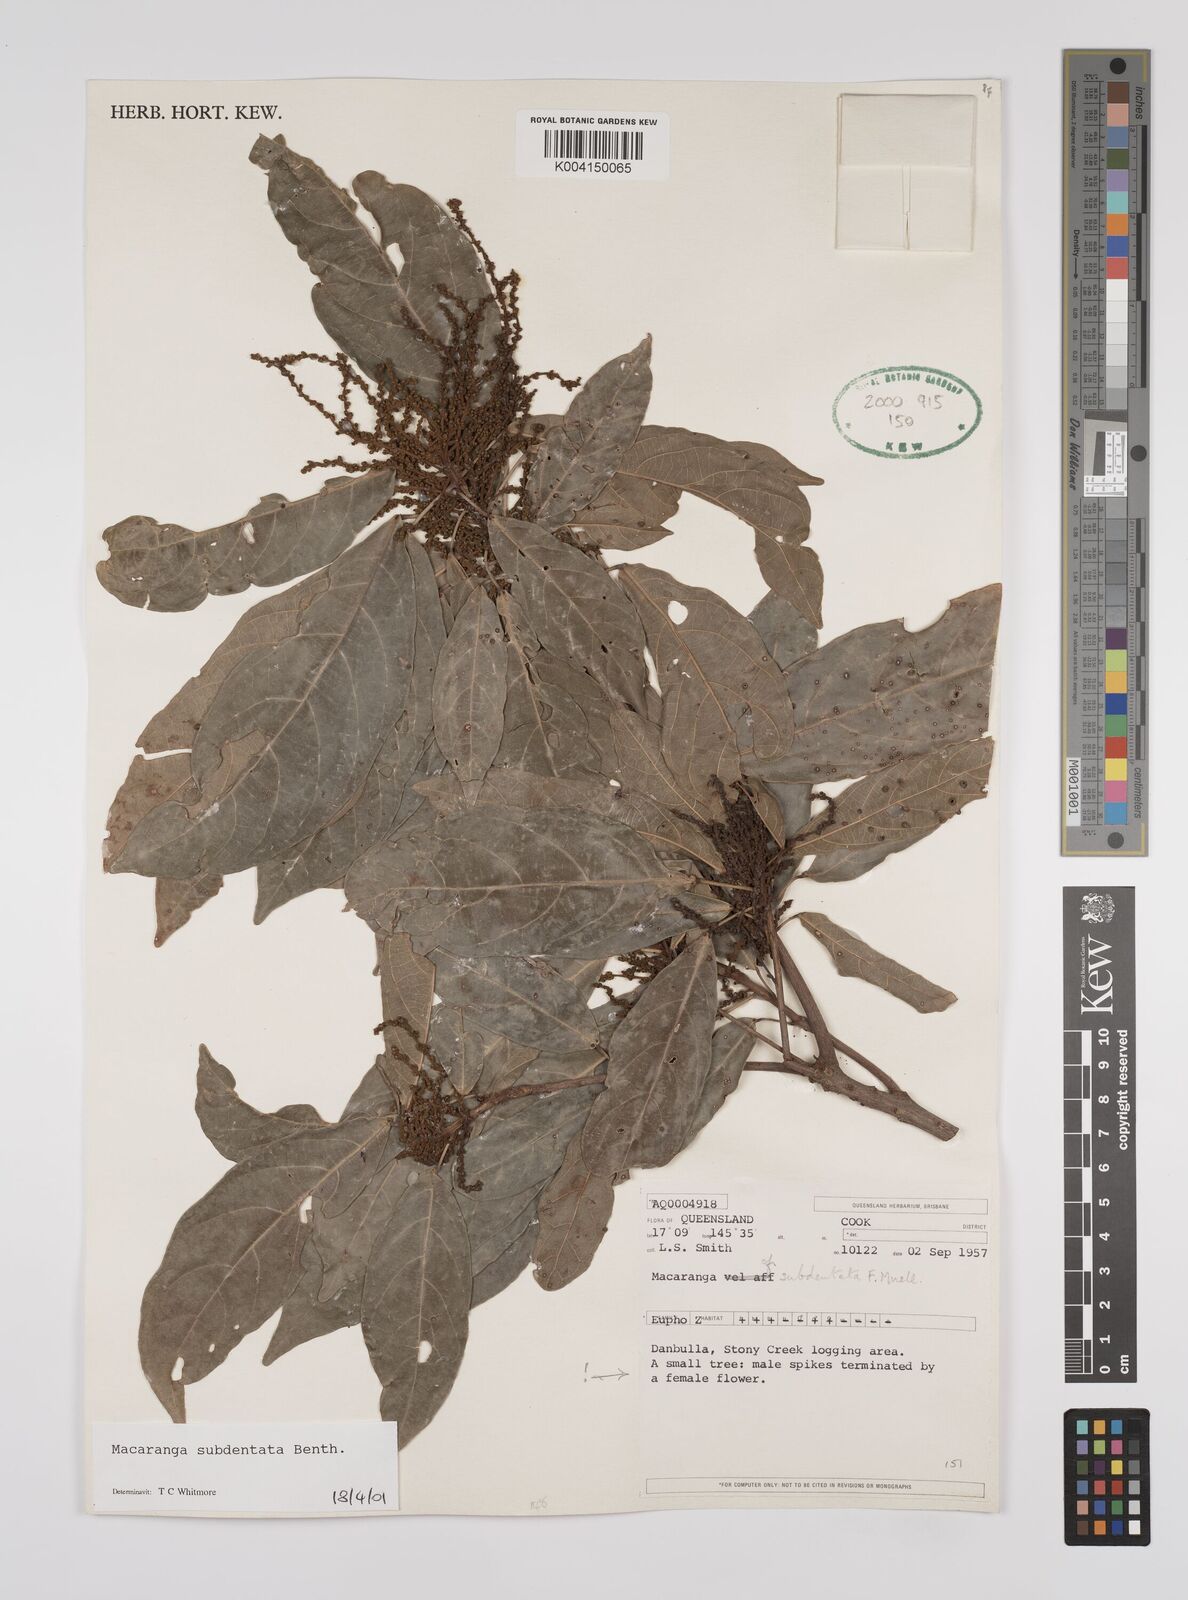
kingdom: Plantae
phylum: Tracheophyta
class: Magnoliopsida
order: Malpighiales
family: Euphorbiaceae
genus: Macaranga
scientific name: Macaranga subdentata
